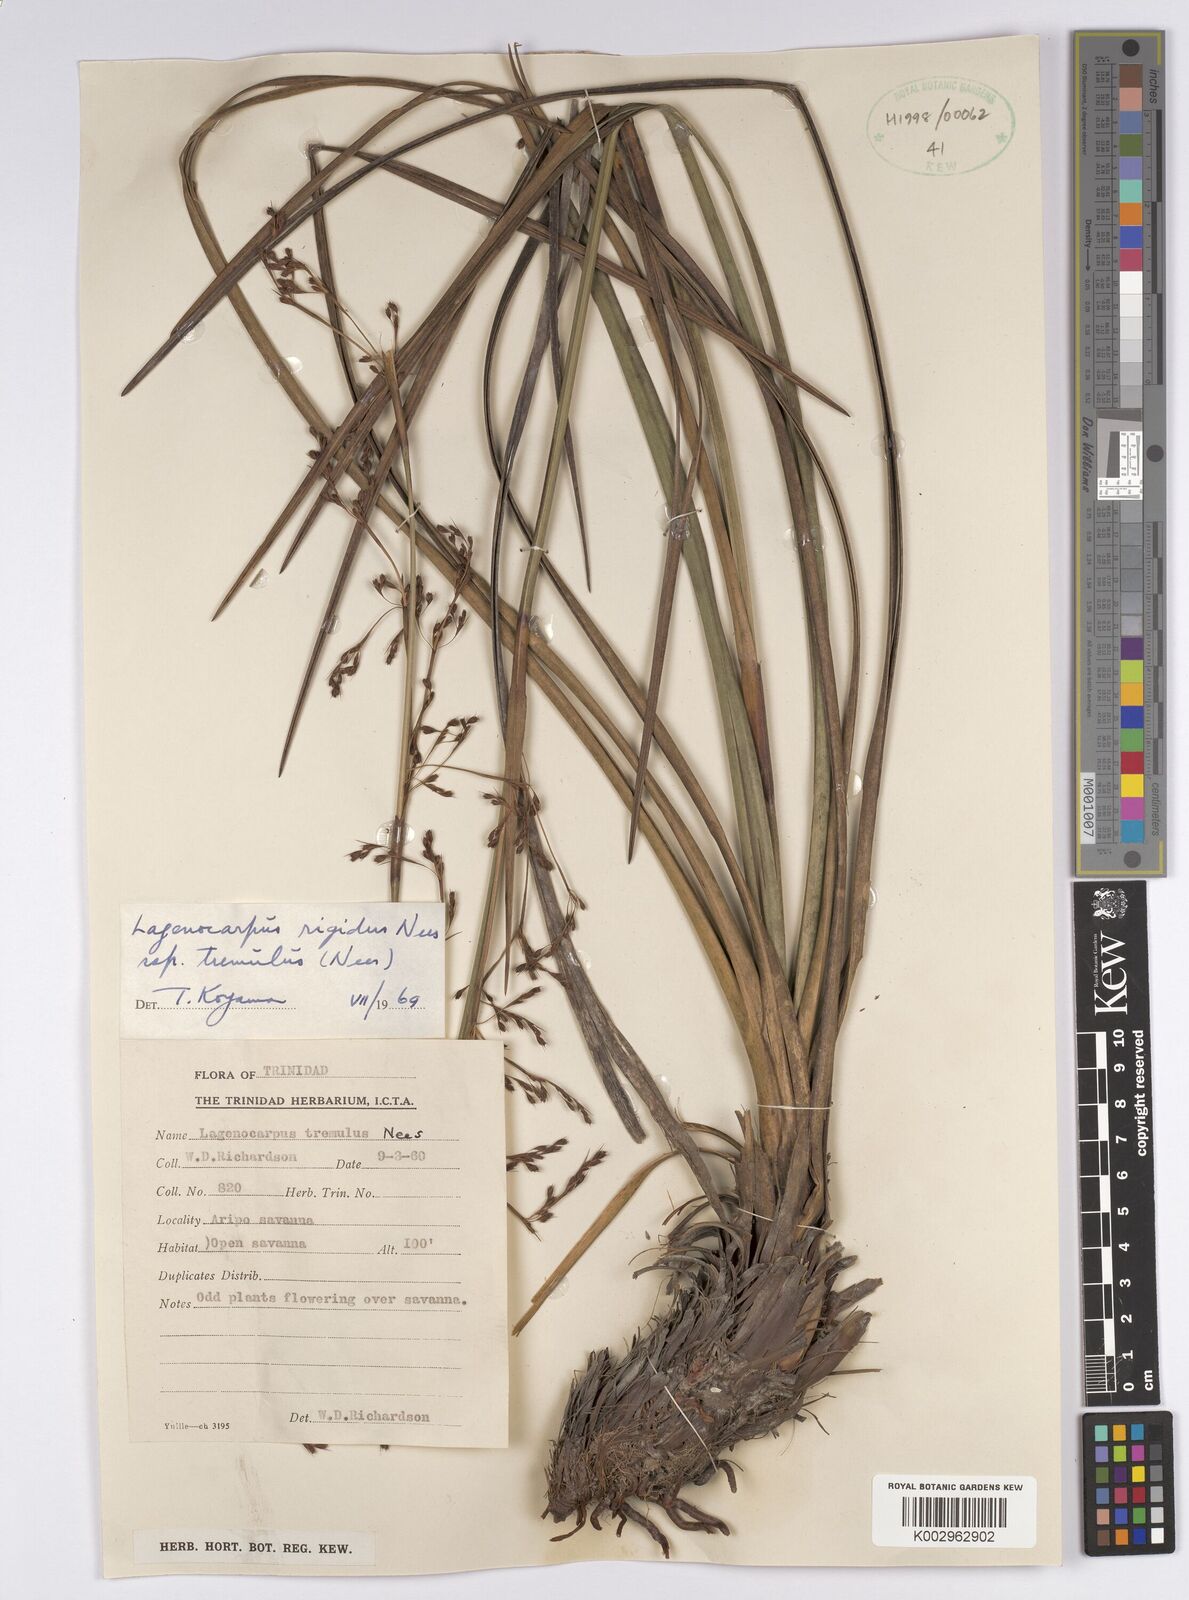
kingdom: Plantae
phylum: Tracheophyta
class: Liliopsida
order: Poales
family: Cyperaceae
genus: Lagenocarpus
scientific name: Lagenocarpus rigidus
